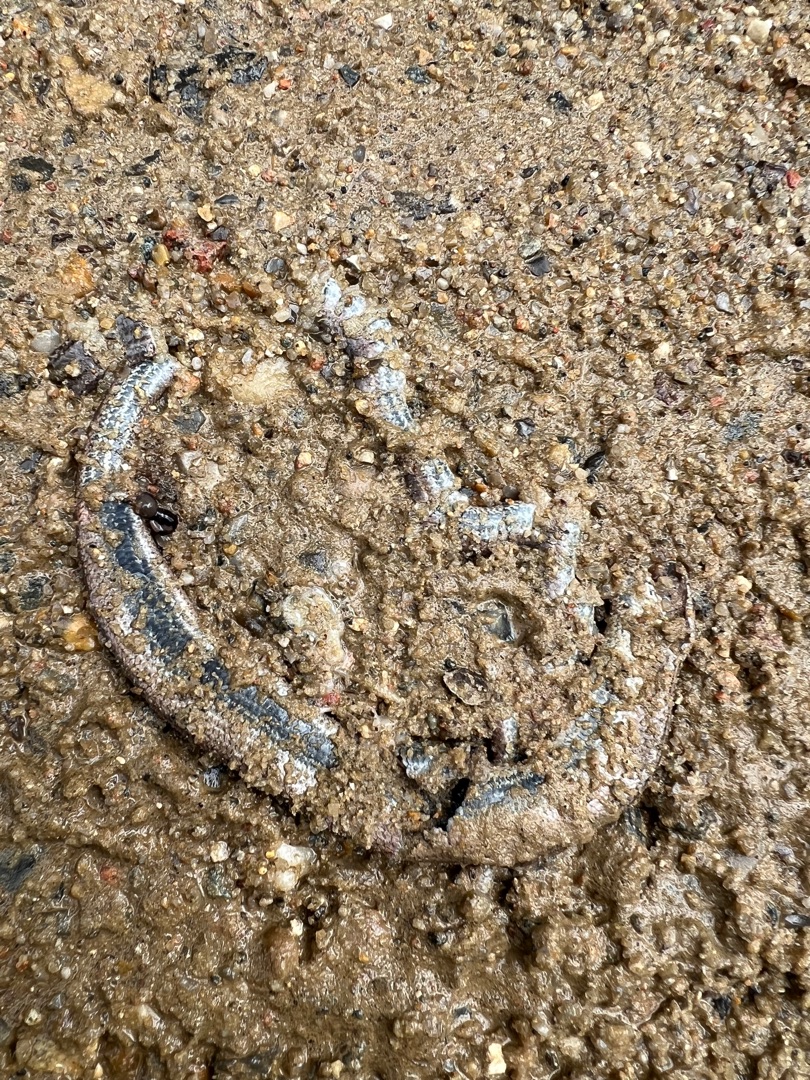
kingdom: Animalia
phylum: Chordata
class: Squamata
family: Anguidae
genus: Anguis
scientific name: Anguis fragilis
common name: Stålorm
